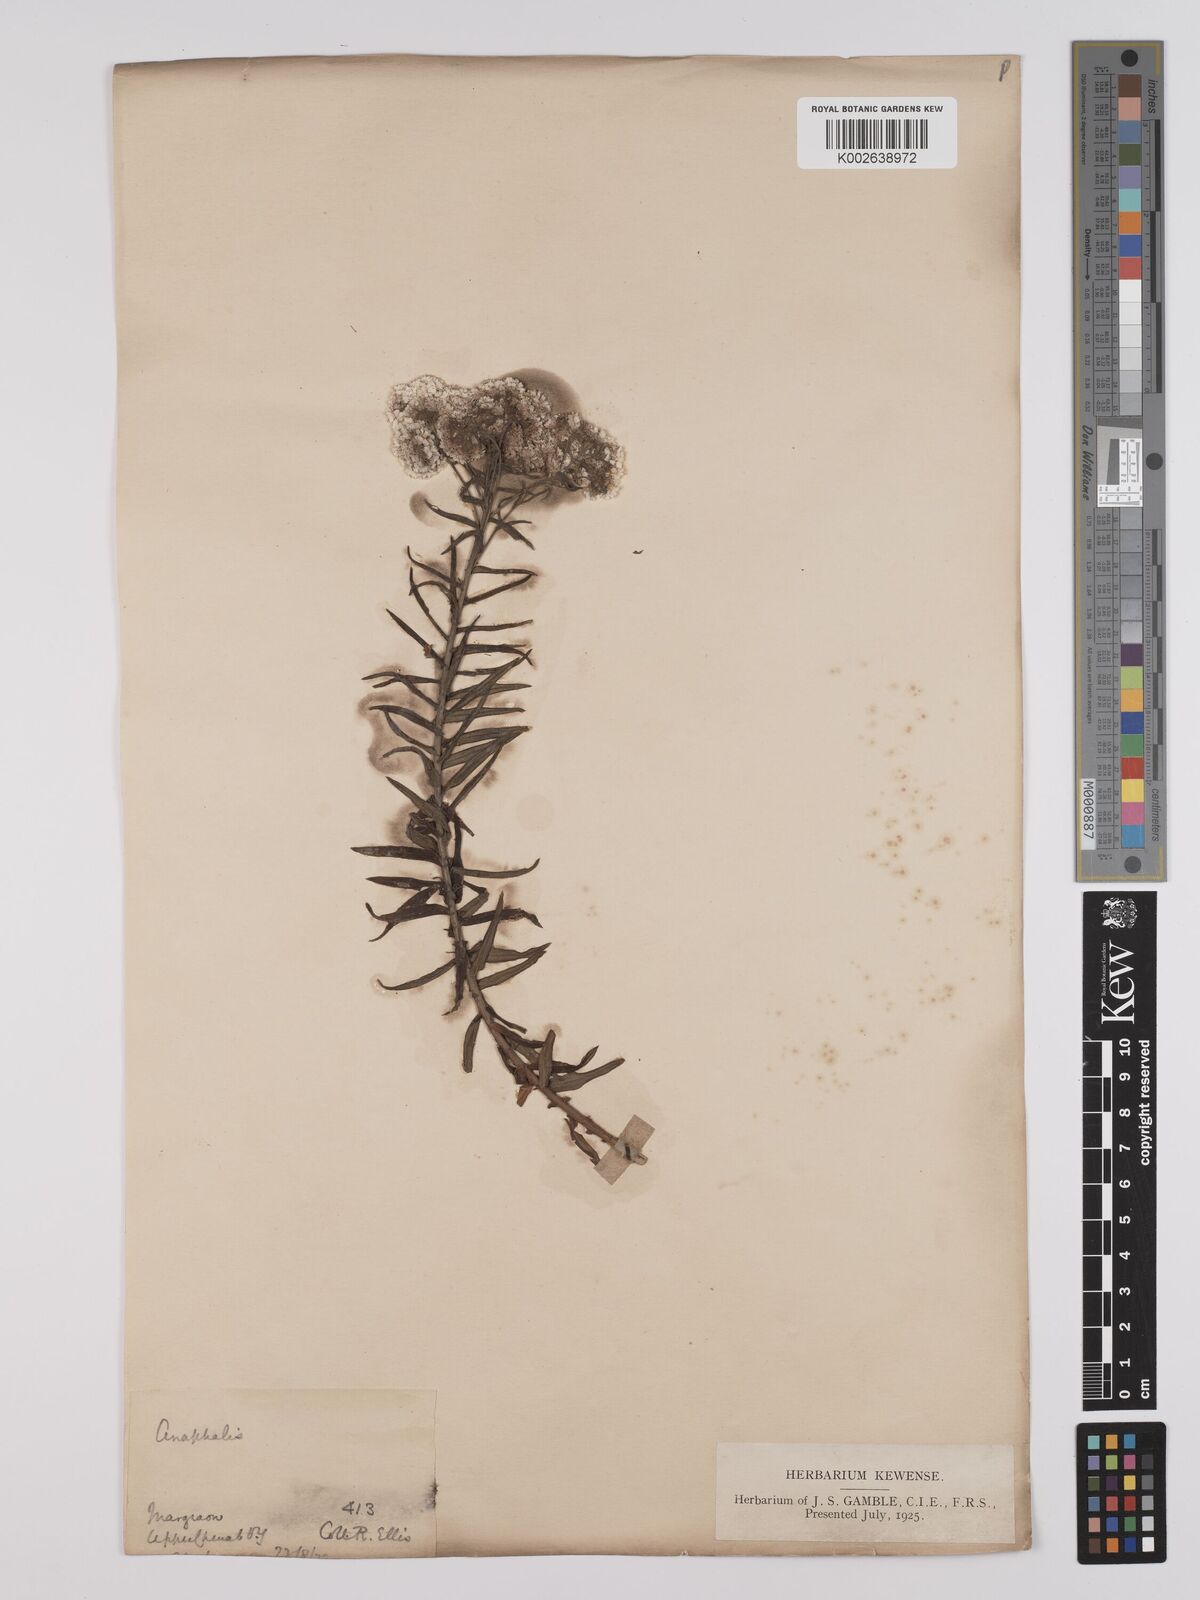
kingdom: Plantae
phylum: Tracheophyta
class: Magnoliopsida
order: Asterales
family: Asteraceae
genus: Anaphalis
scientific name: Anaphalis busua
